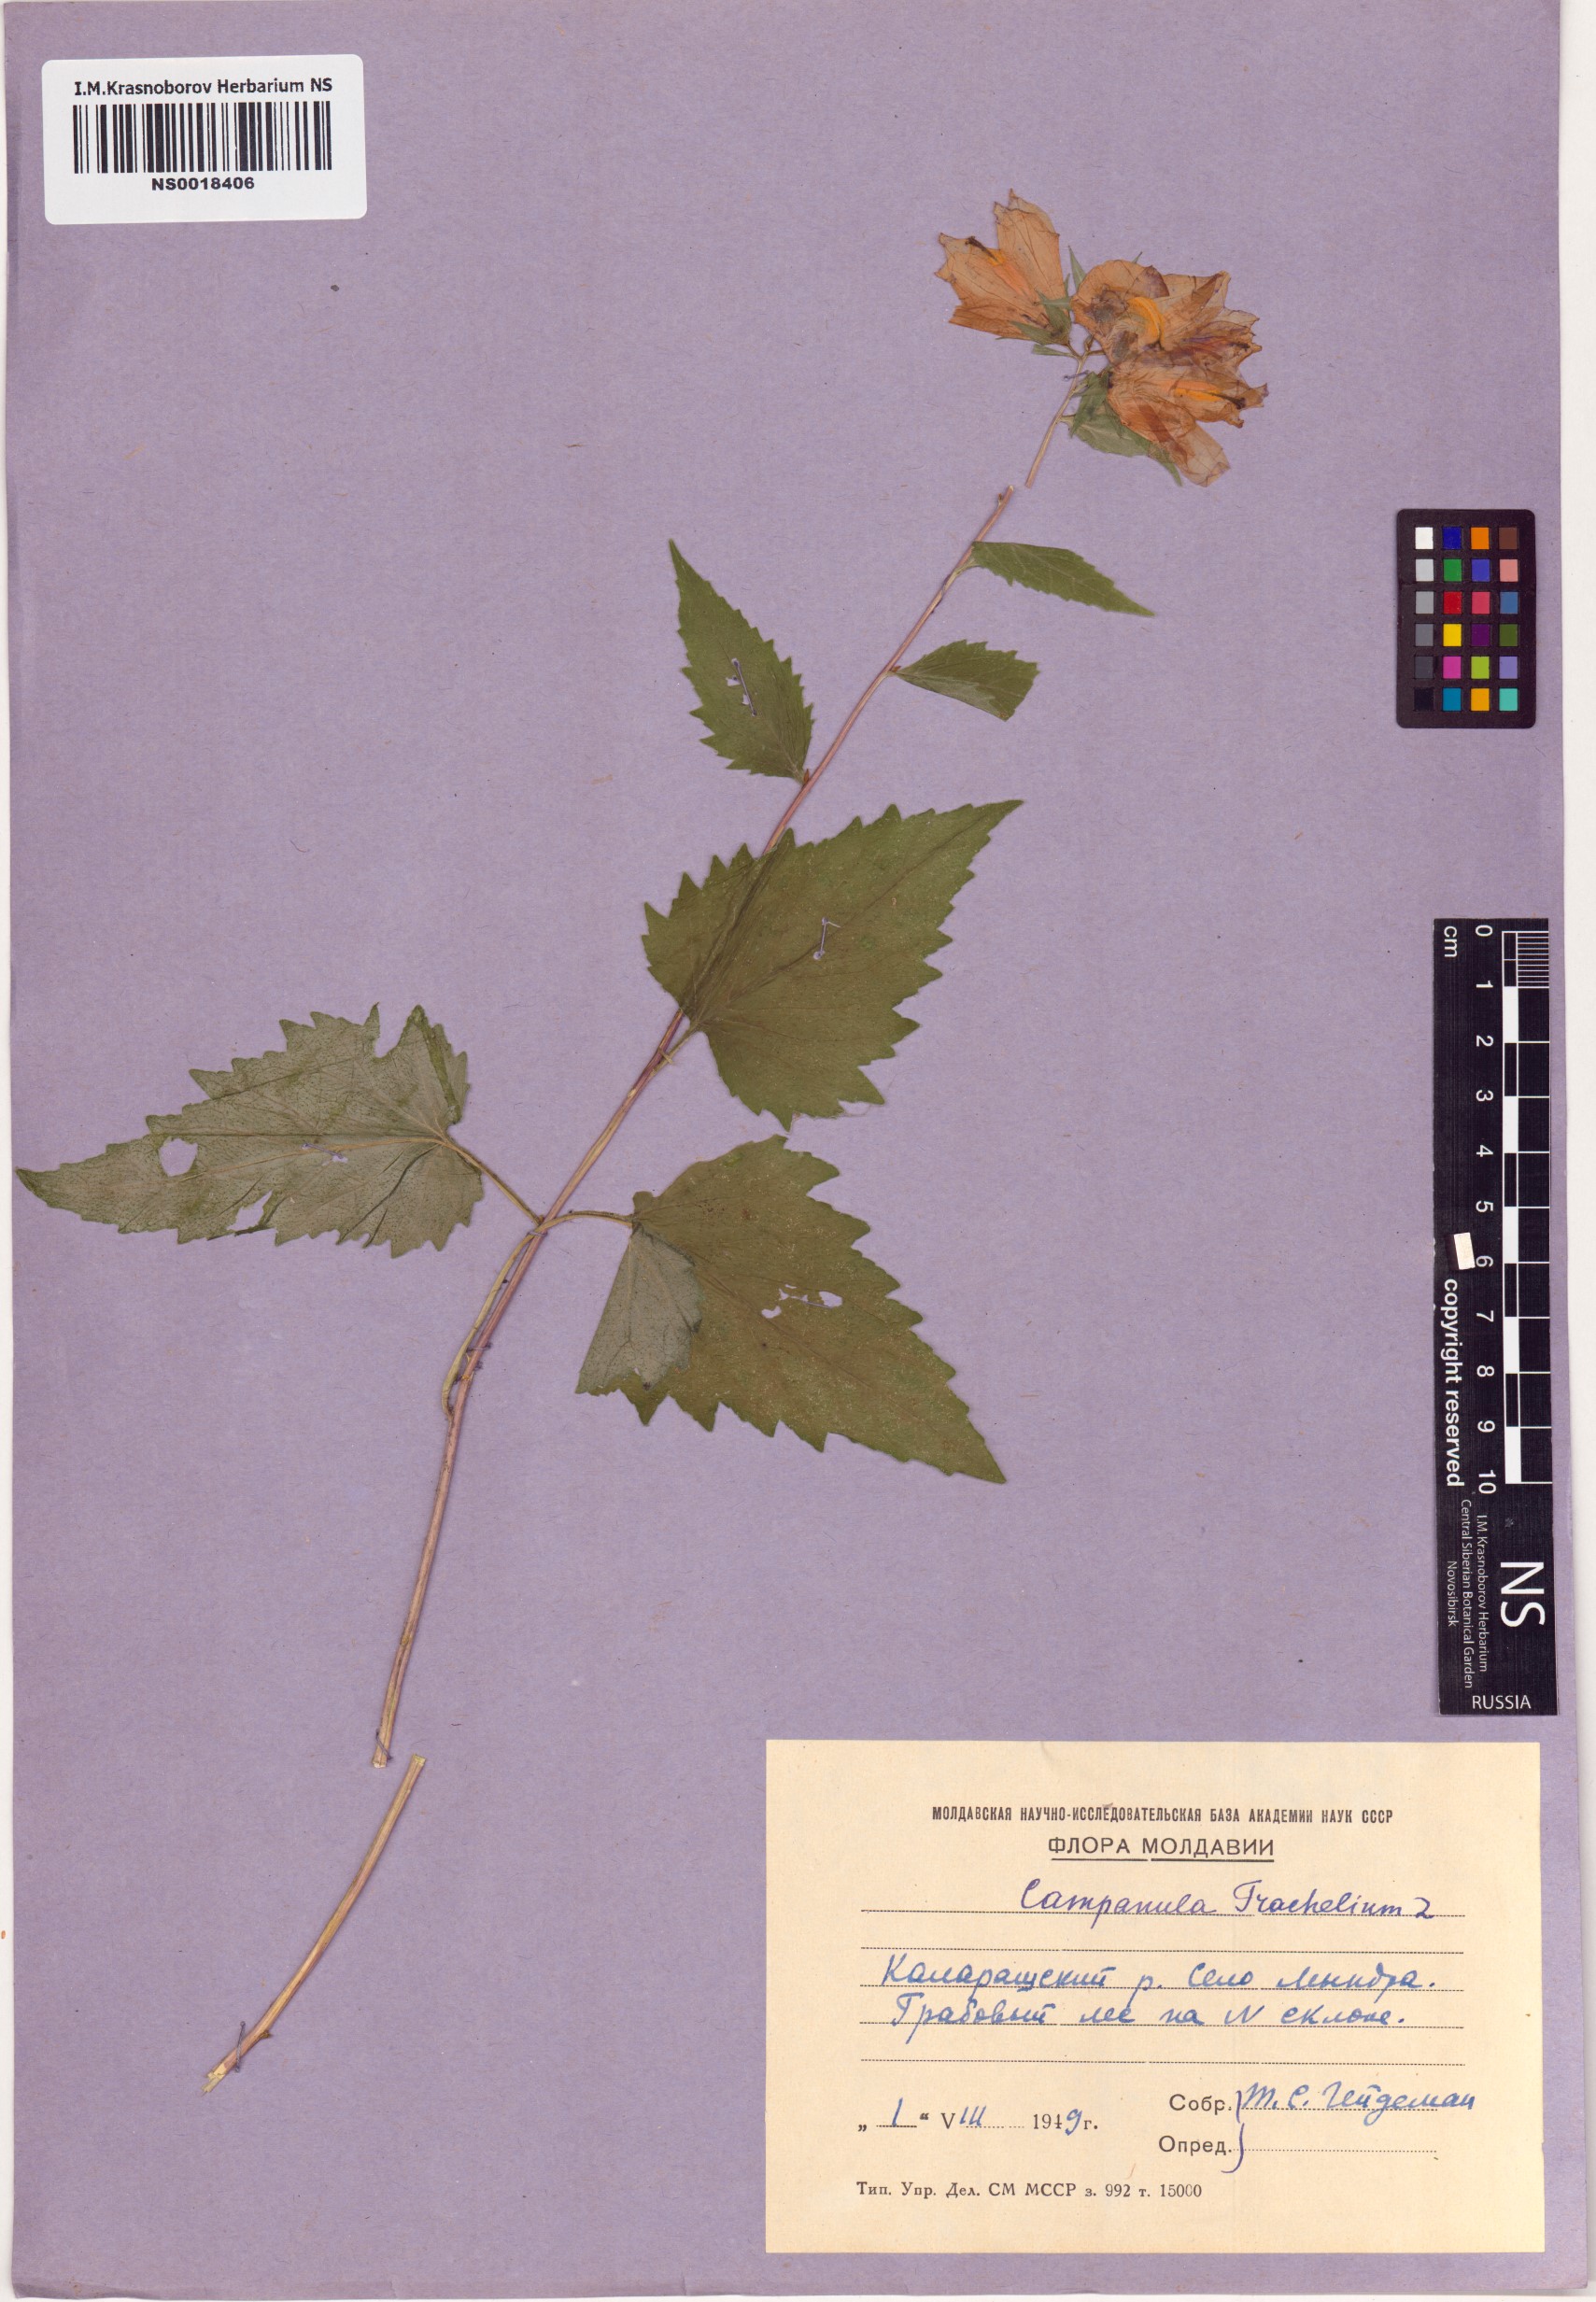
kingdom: Plantae
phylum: Tracheophyta
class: Magnoliopsida
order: Asterales
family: Campanulaceae
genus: Campanula
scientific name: Campanula trachelium
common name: Nettle-leaved bellflower
